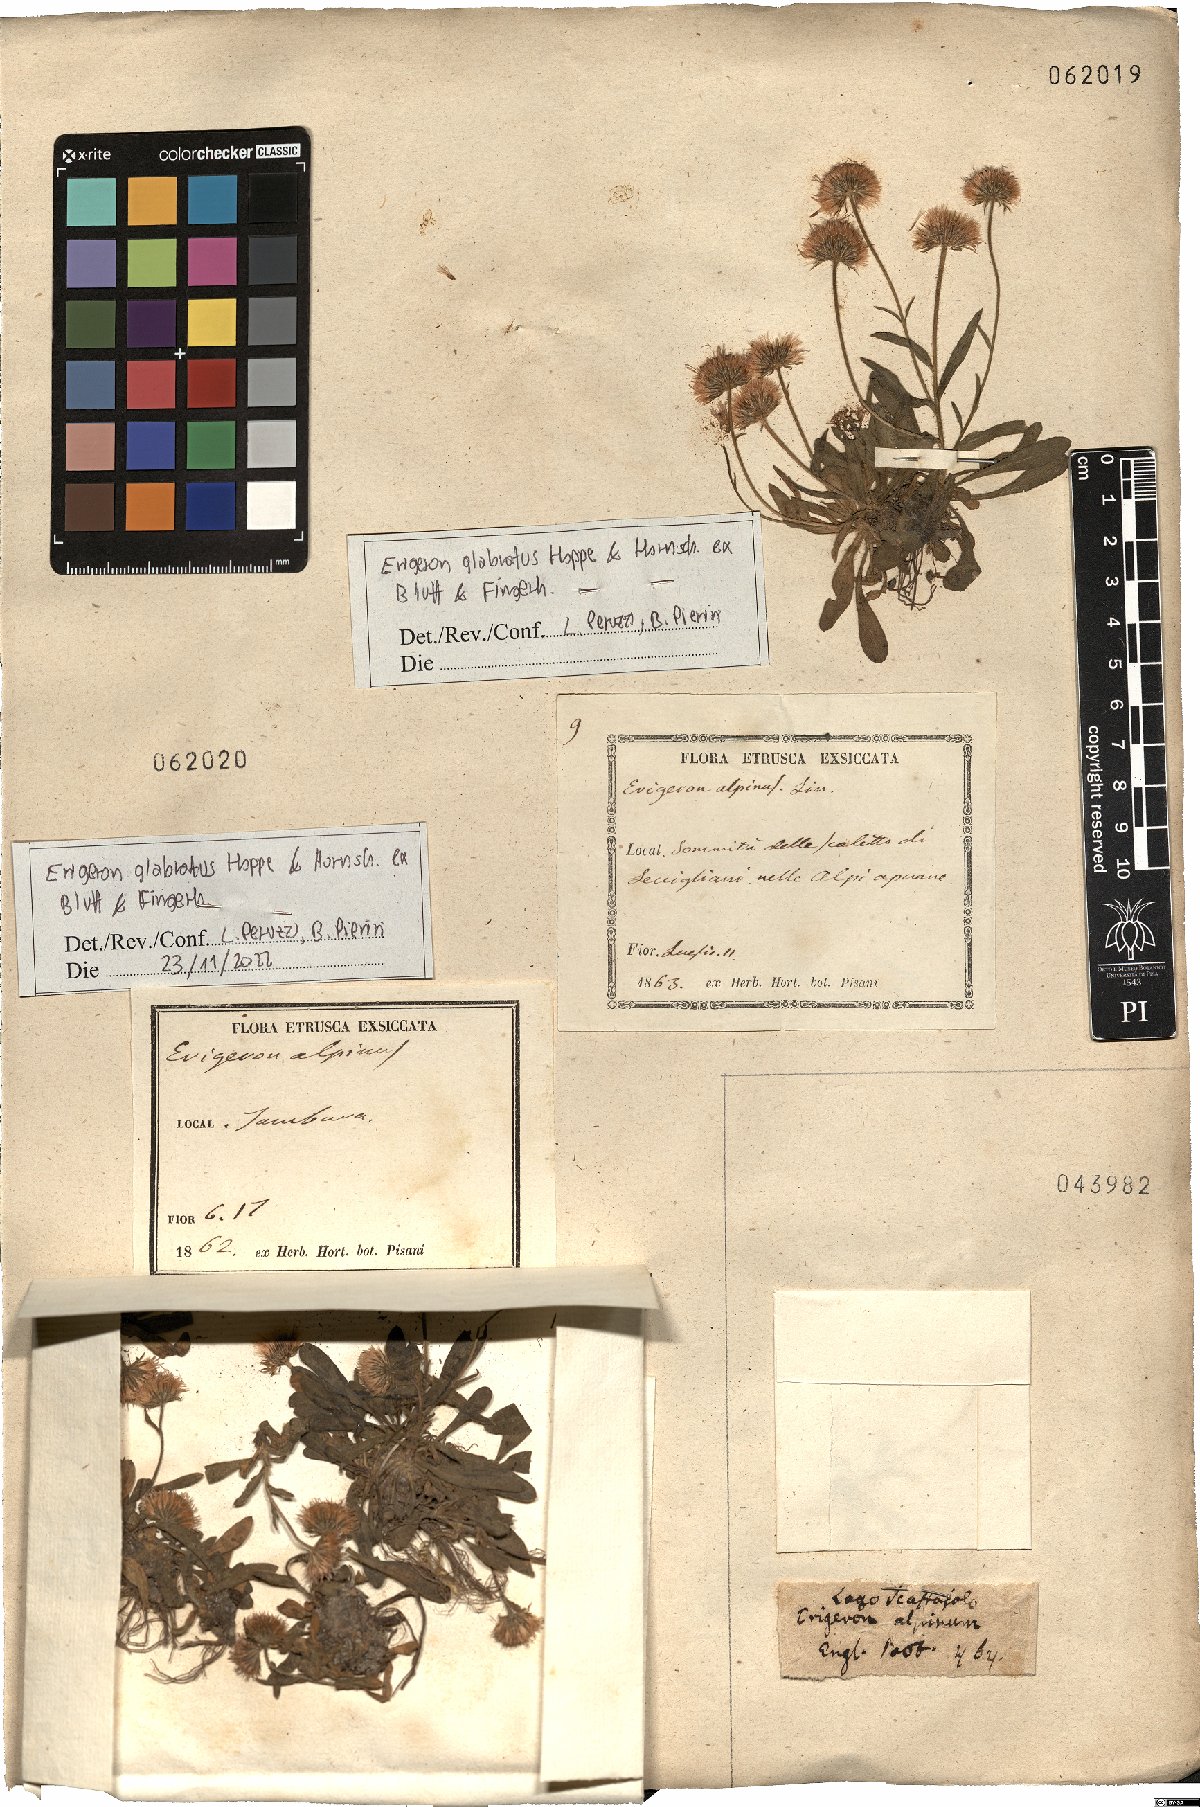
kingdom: Plantae
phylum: Tracheophyta
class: Magnoliopsida
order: Asterales
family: Asteraceae
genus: Erigeron
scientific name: Erigeron glabratus
